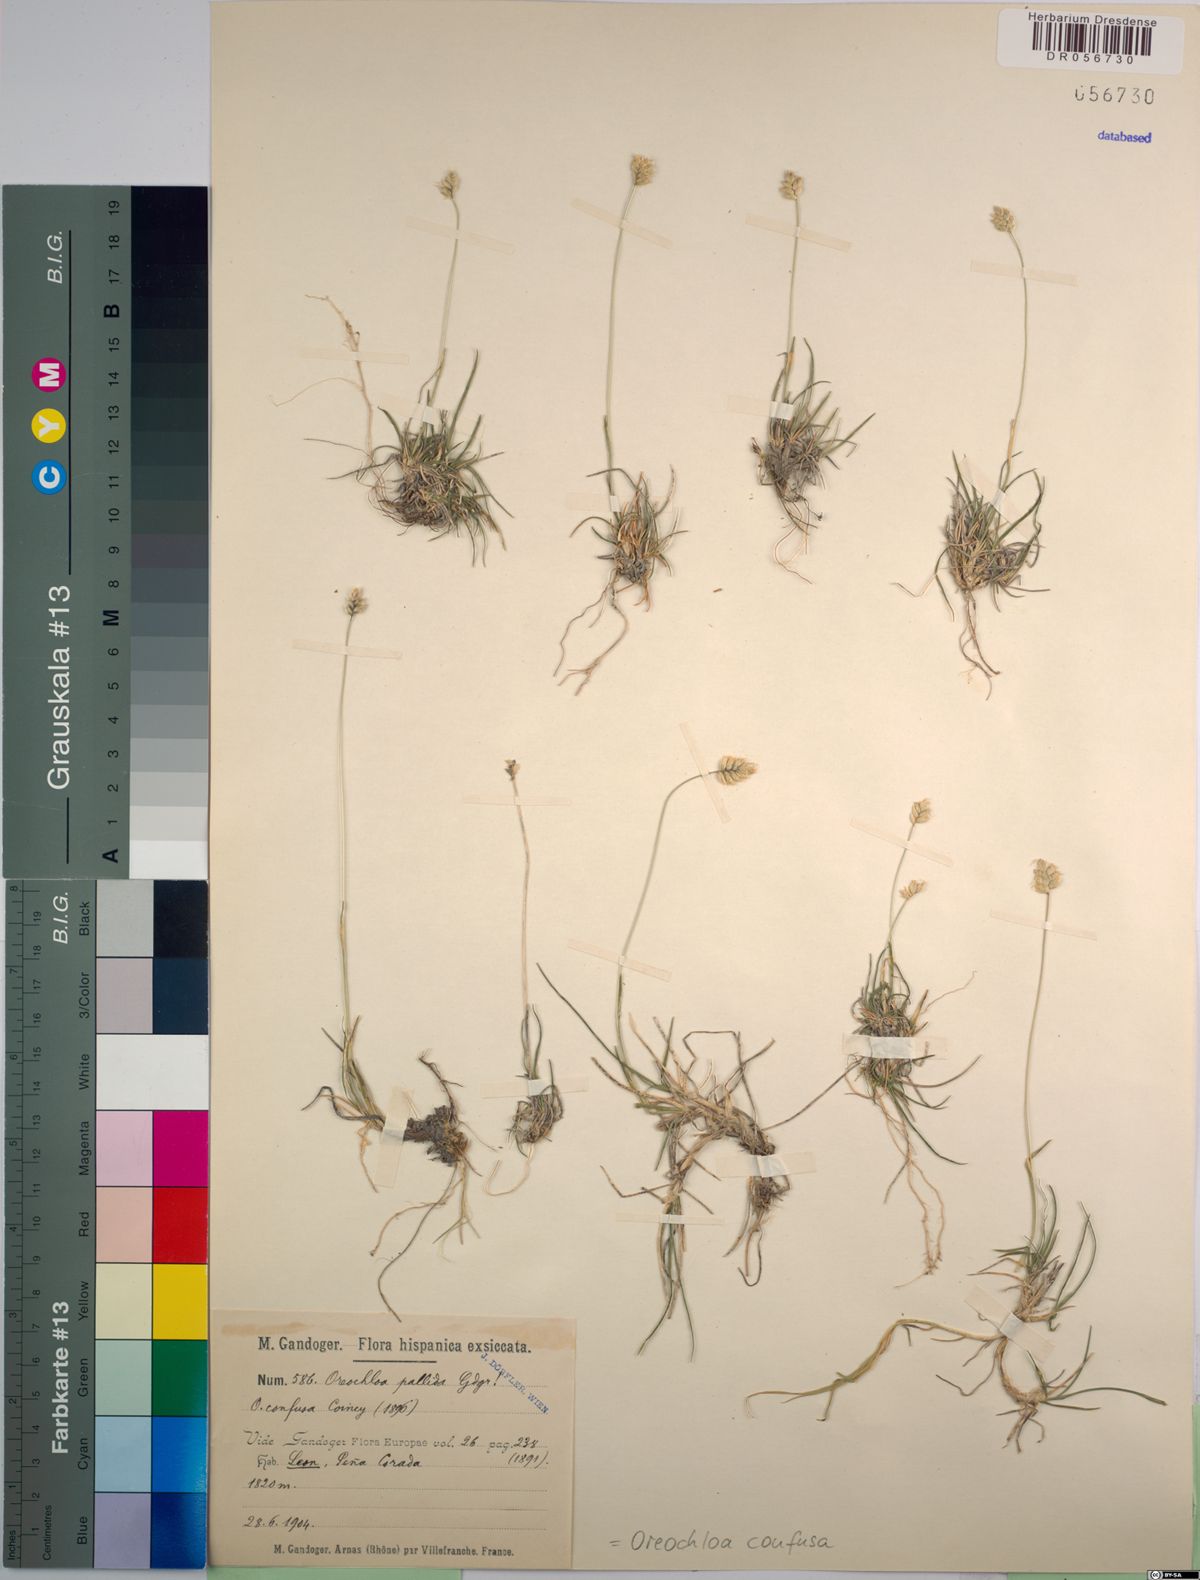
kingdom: Plantae
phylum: Tracheophyta
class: Liliopsida
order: Poales
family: Poaceae
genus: Oreochloa
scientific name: Oreochloa confusa
